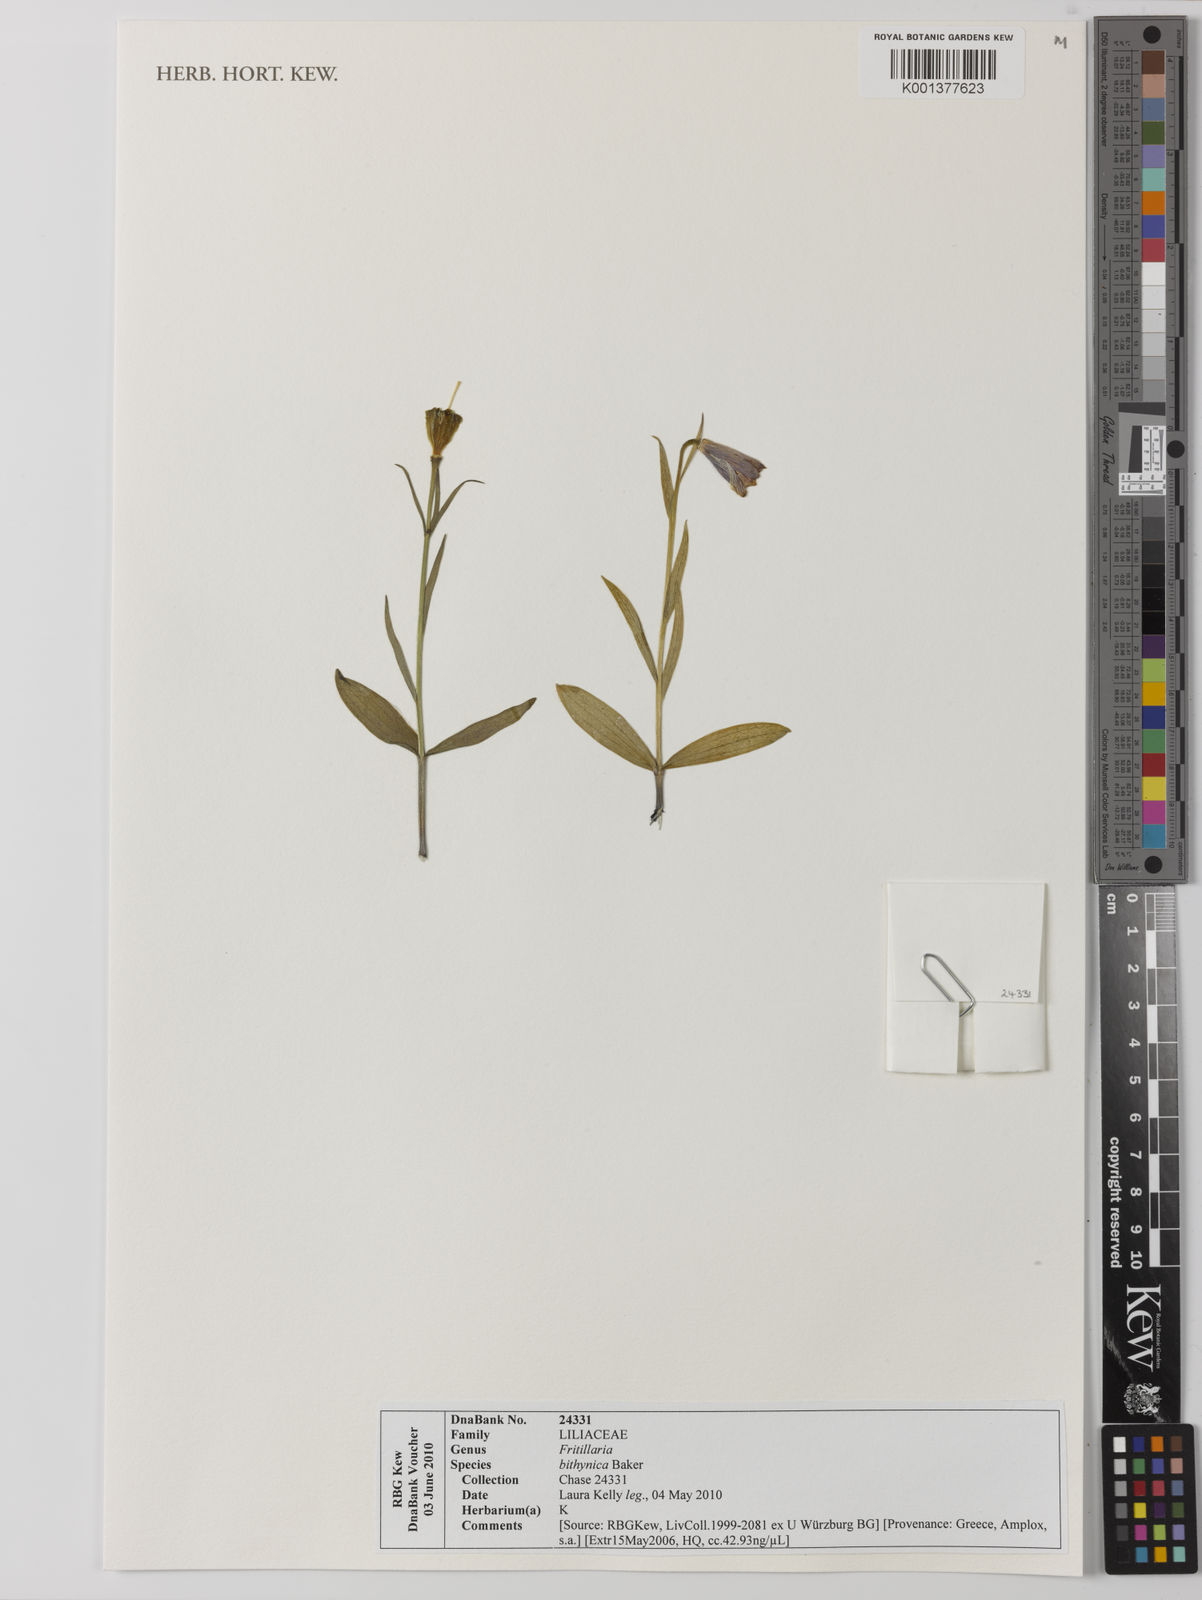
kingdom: Plantae
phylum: Tracheophyta
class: Liliopsida
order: Liliales
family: Liliaceae
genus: Fritillaria
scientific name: Fritillaria eastwoodiae
